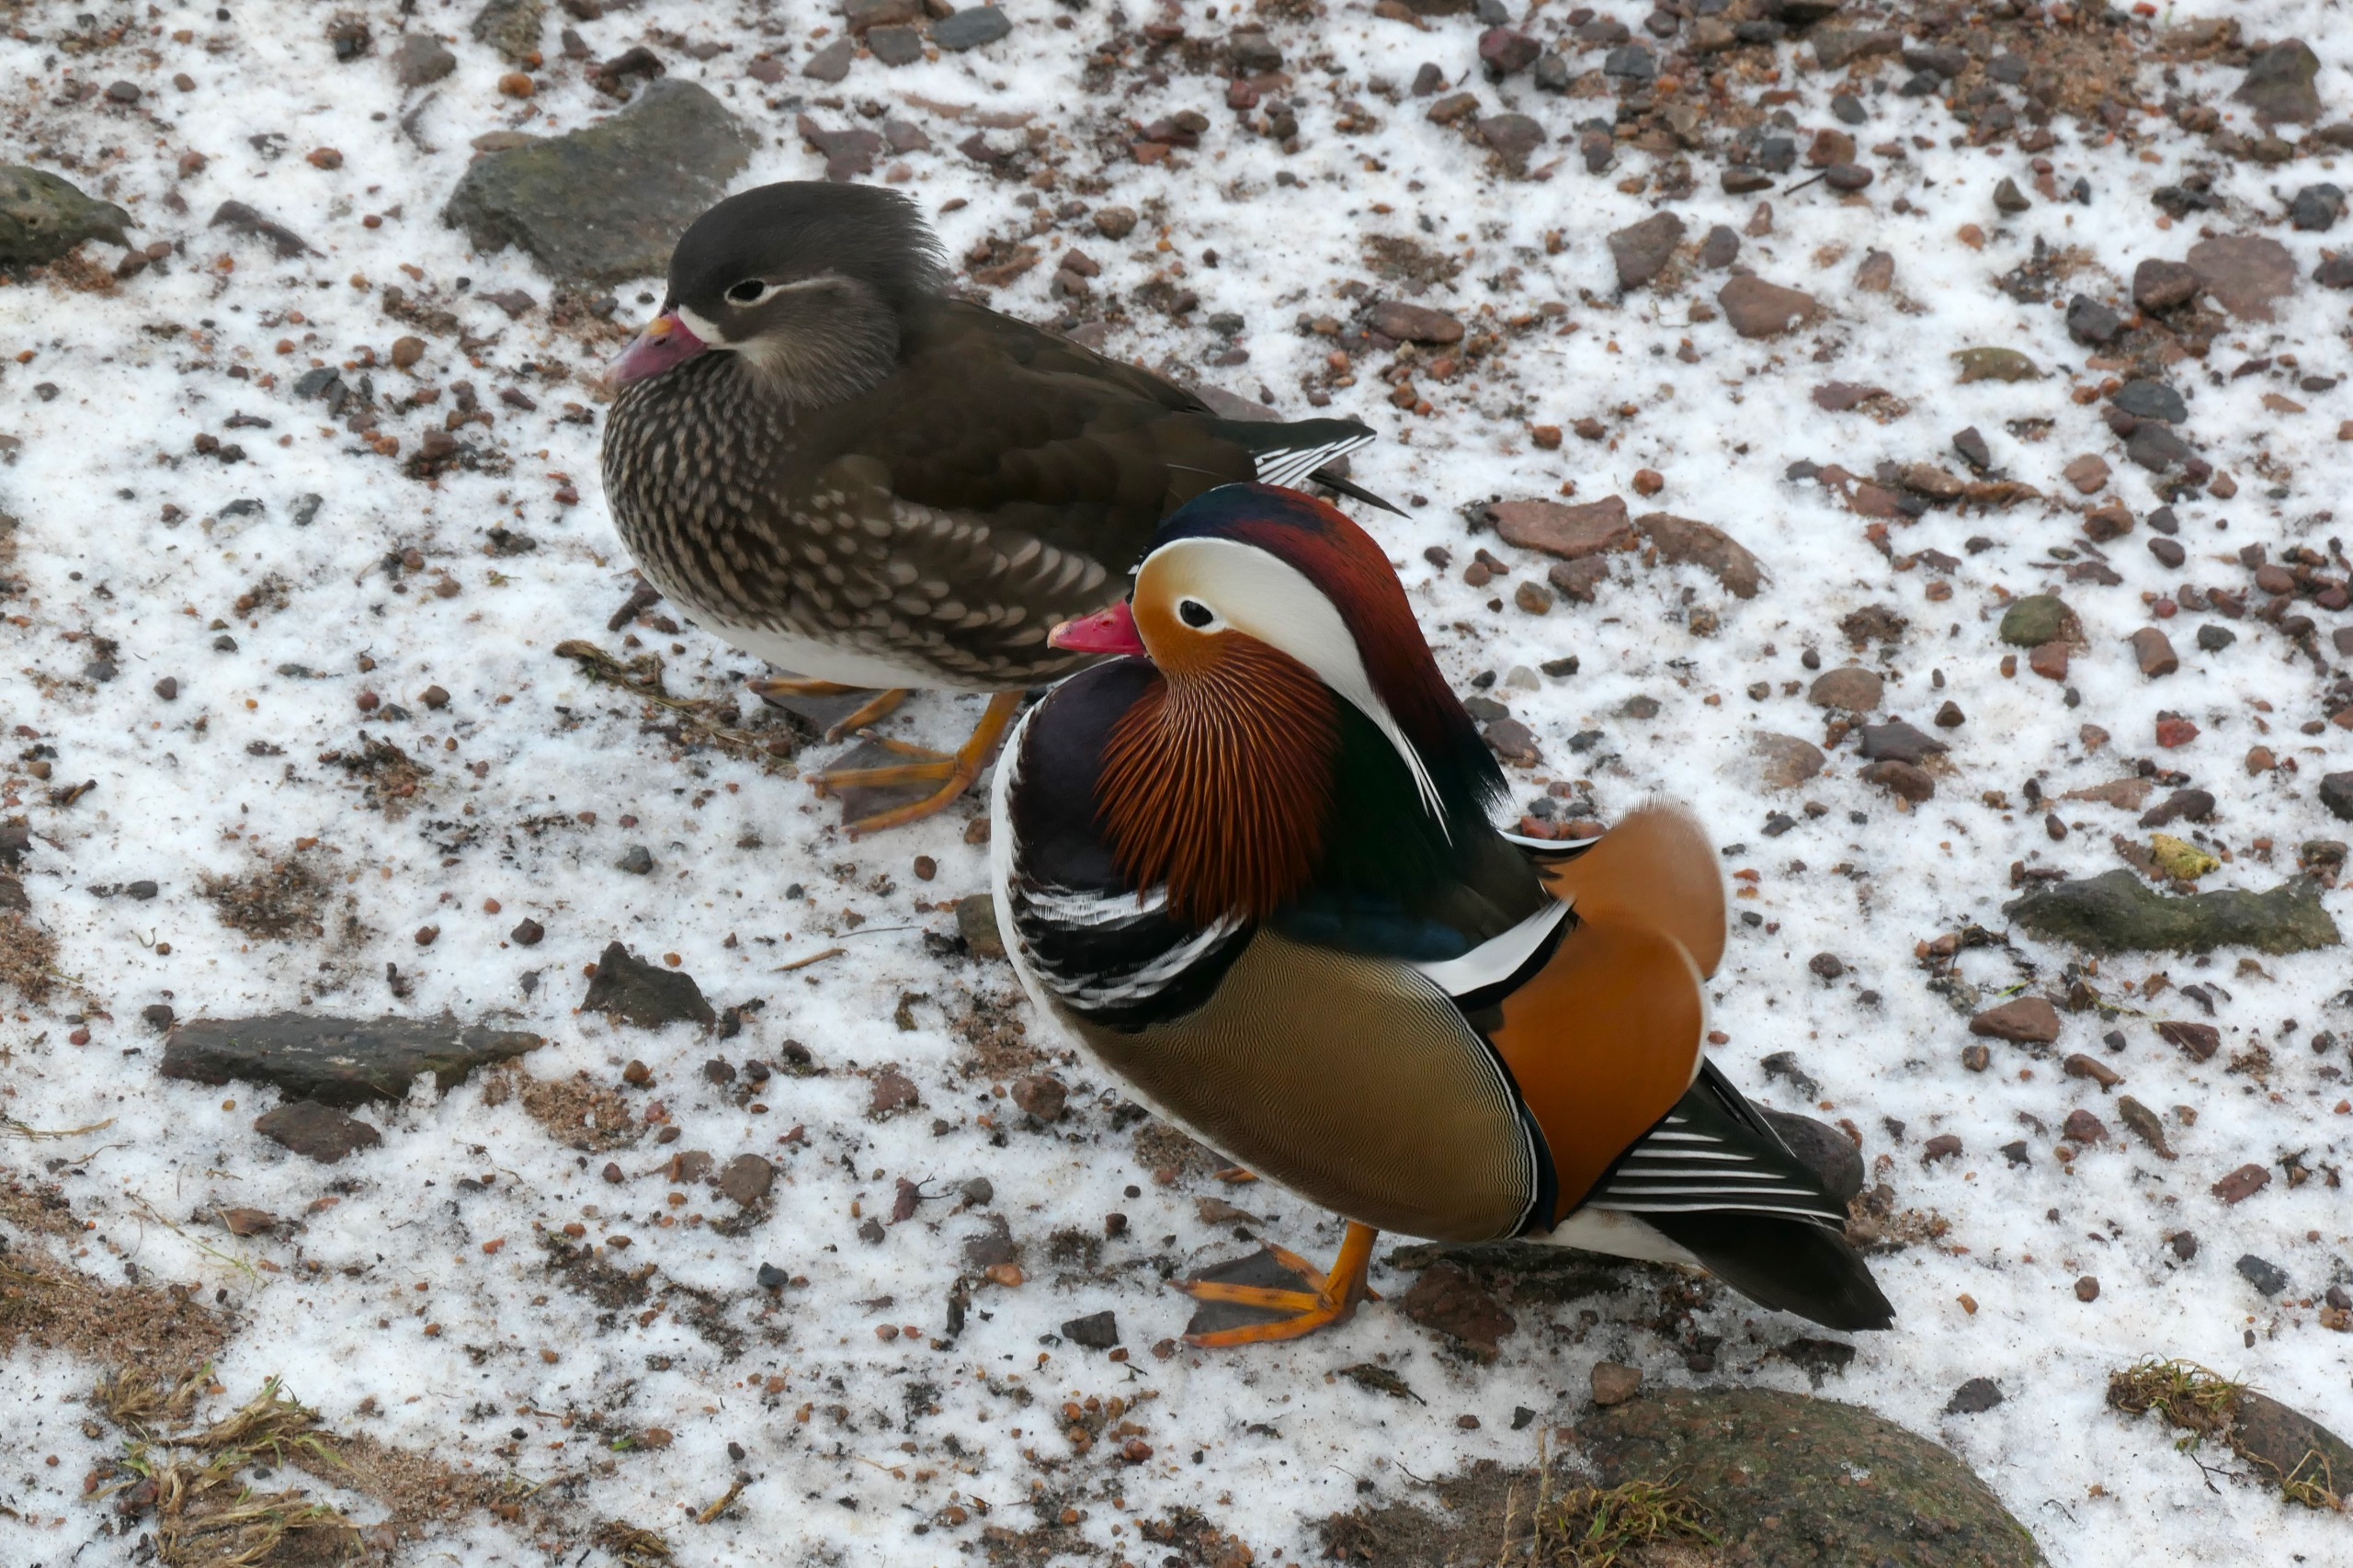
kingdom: Animalia
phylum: Chordata
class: Aves
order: Anseriformes
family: Anatidae
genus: Aix
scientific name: Aix galericulata
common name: Mandarinand
